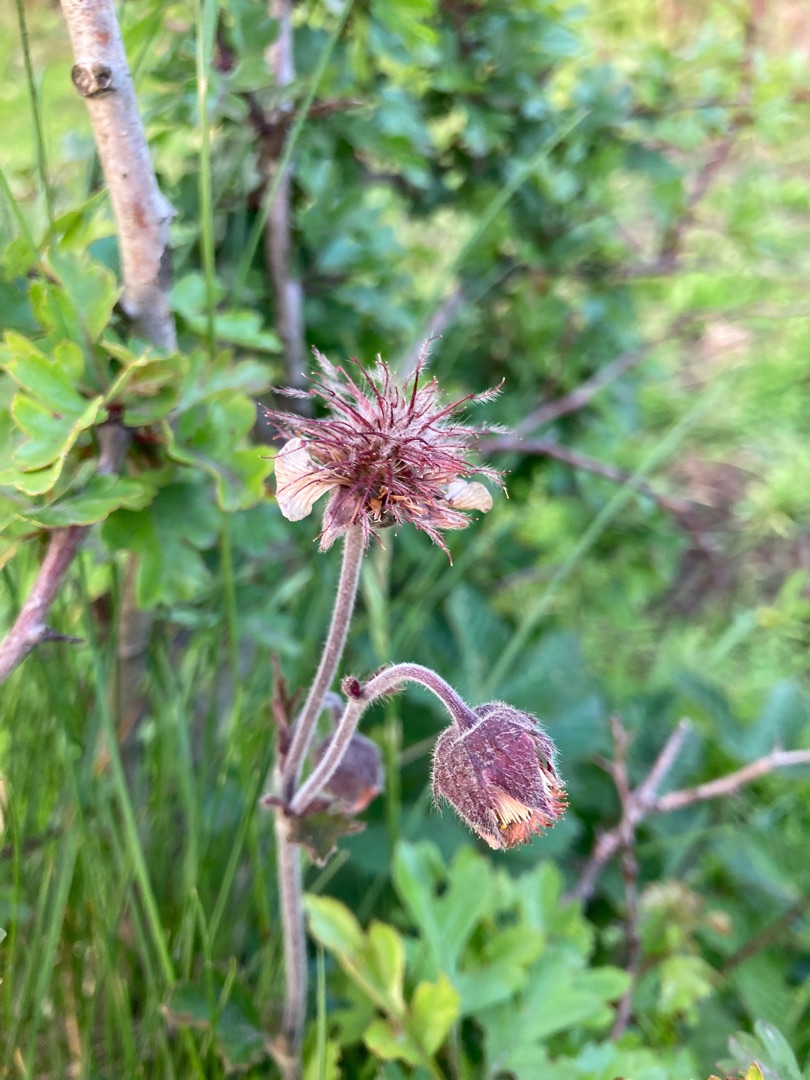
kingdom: Plantae
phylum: Tracheophyta
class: Magnoliopsida
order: Rosales
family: Rosaceae
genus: Geum
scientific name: Geum rivale
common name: Eng-nellikerod
